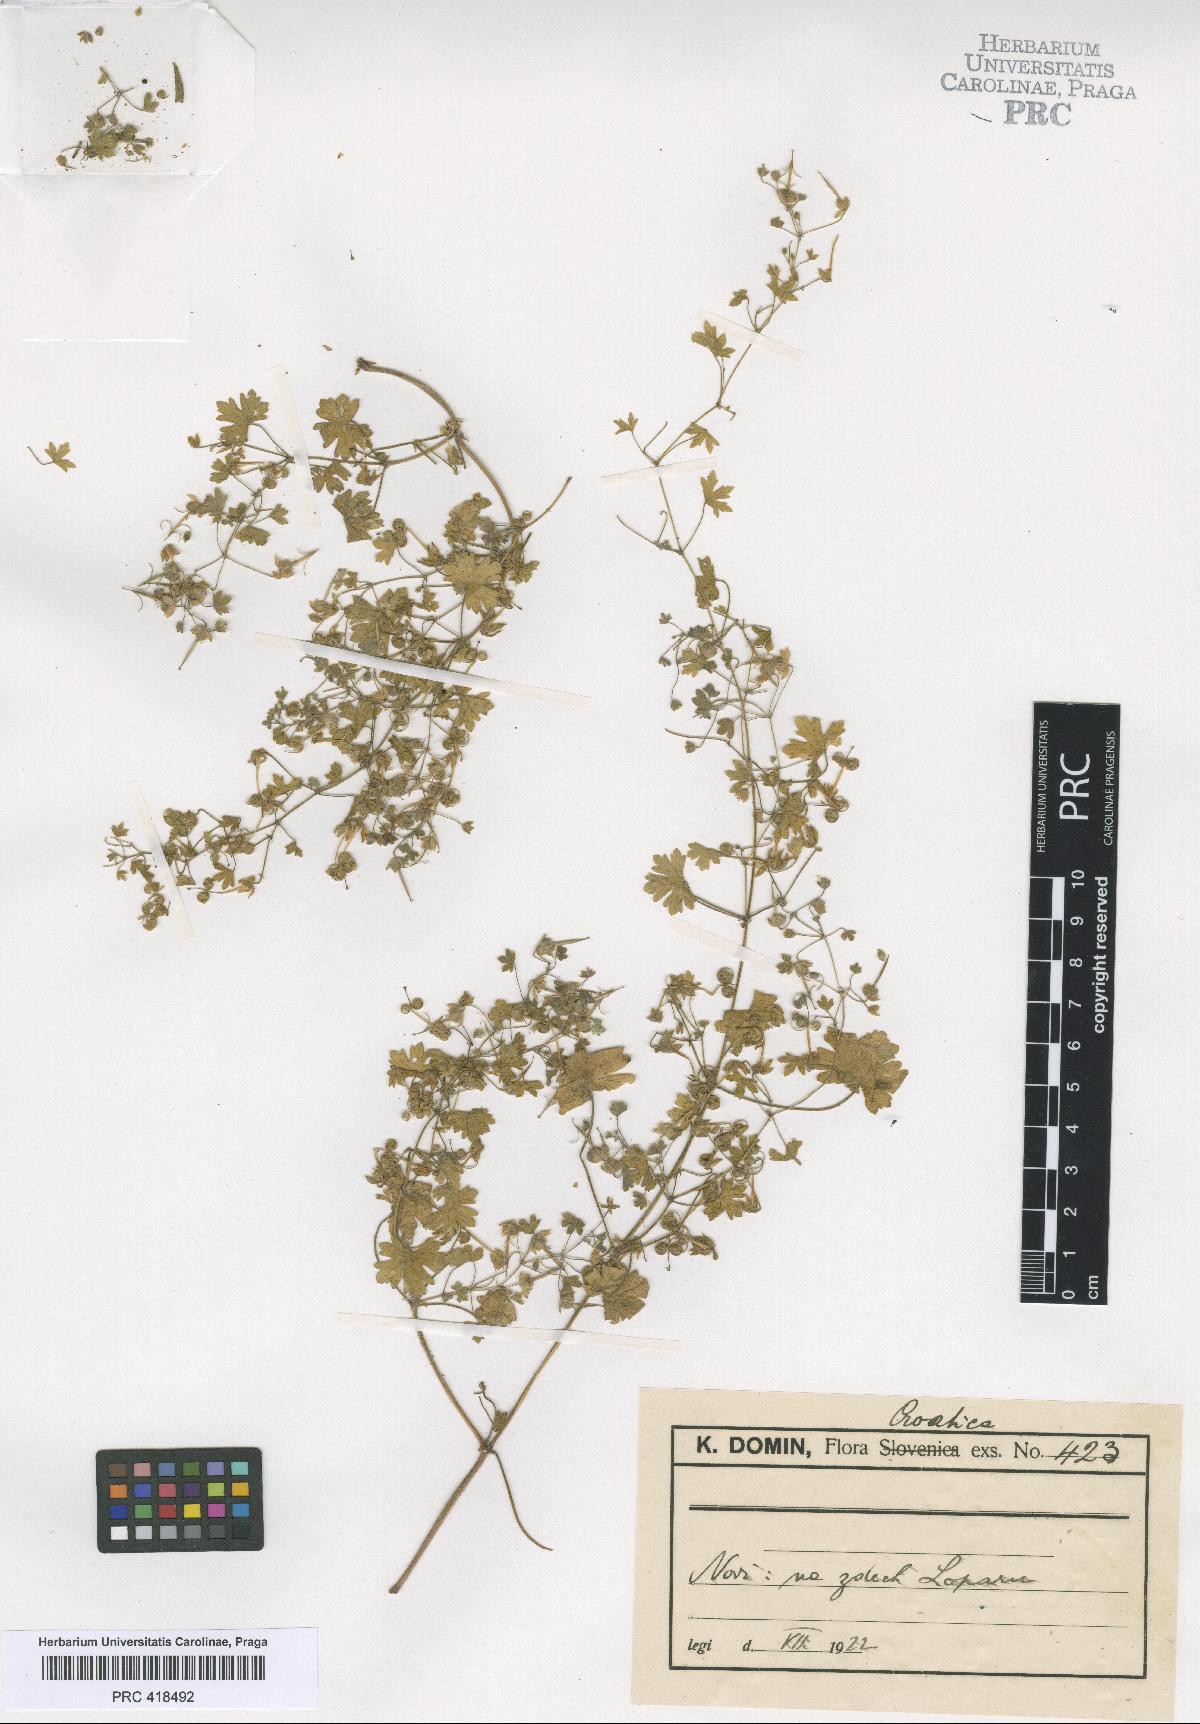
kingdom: Plantae
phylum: Tracheophyta
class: Magnoliopsida
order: Geraniales
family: Geraniaceae
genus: Geranium
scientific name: Geranium rotundifolium
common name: Round-leaved crane's-bill
